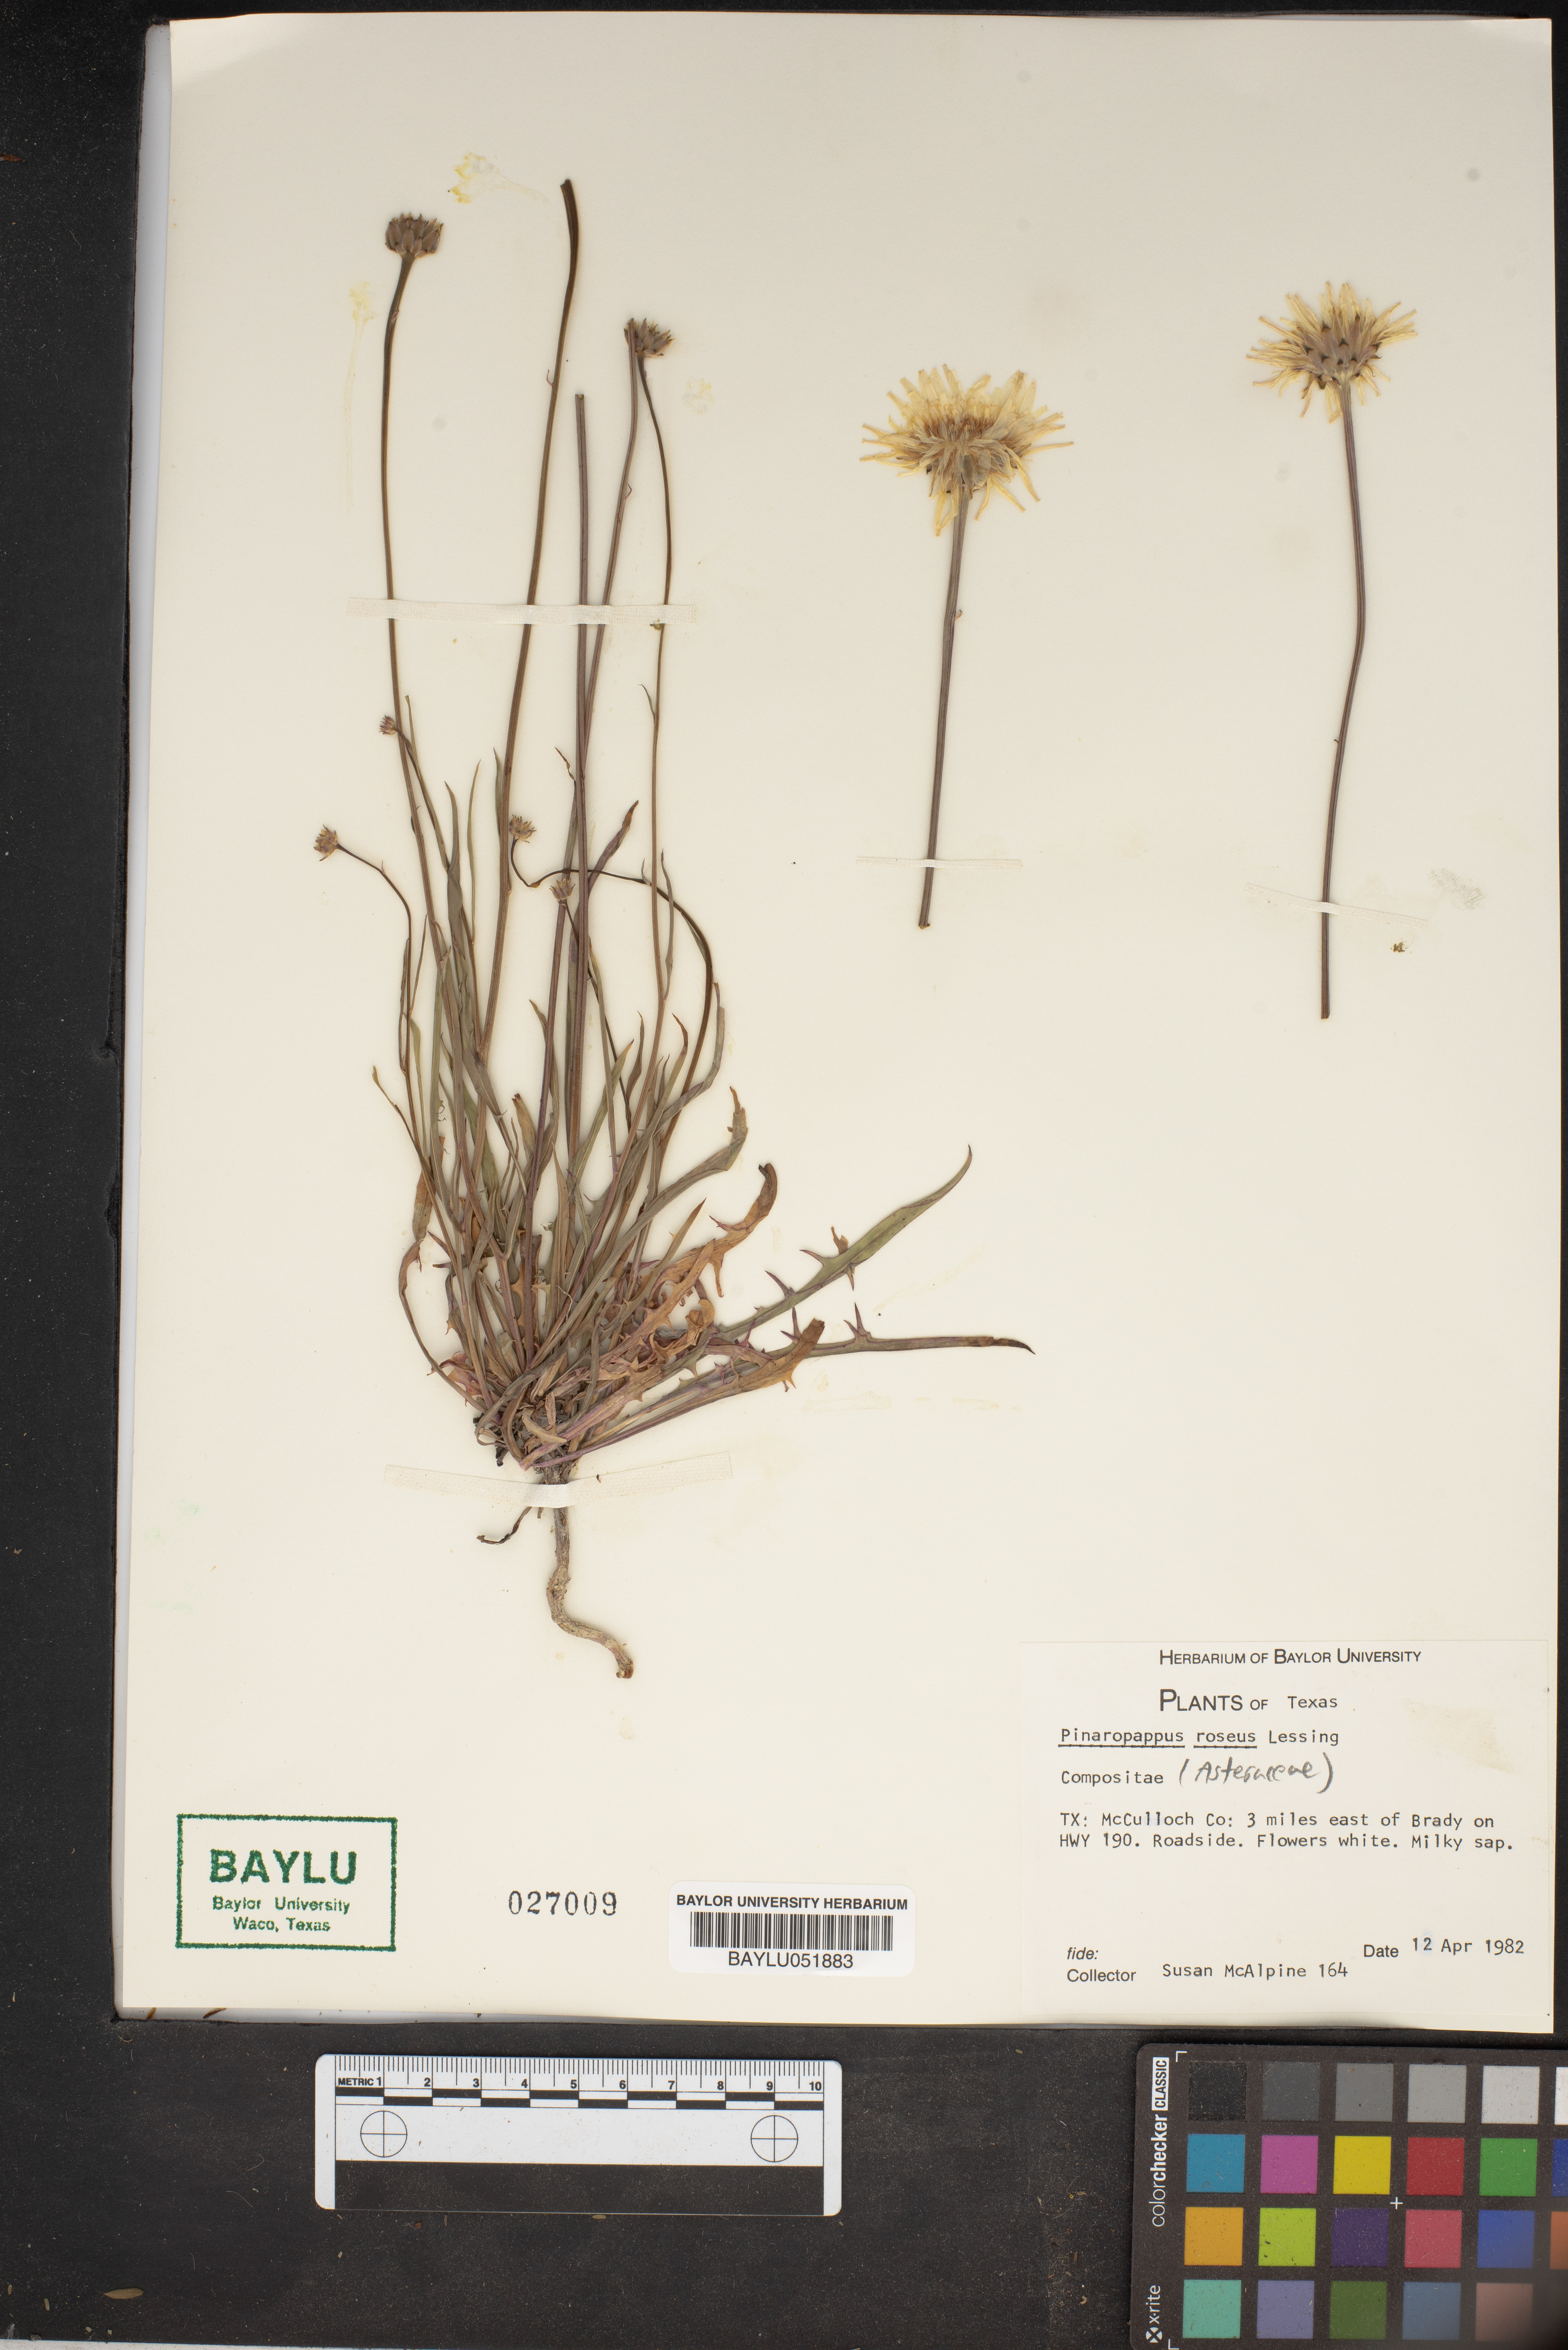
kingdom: Plantae
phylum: Tracheophyta
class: Magnoliopsida
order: Asterales
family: Asteraceae
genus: Pinaropappus
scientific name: Pinaropappus roseus
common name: Rock-lettuce
